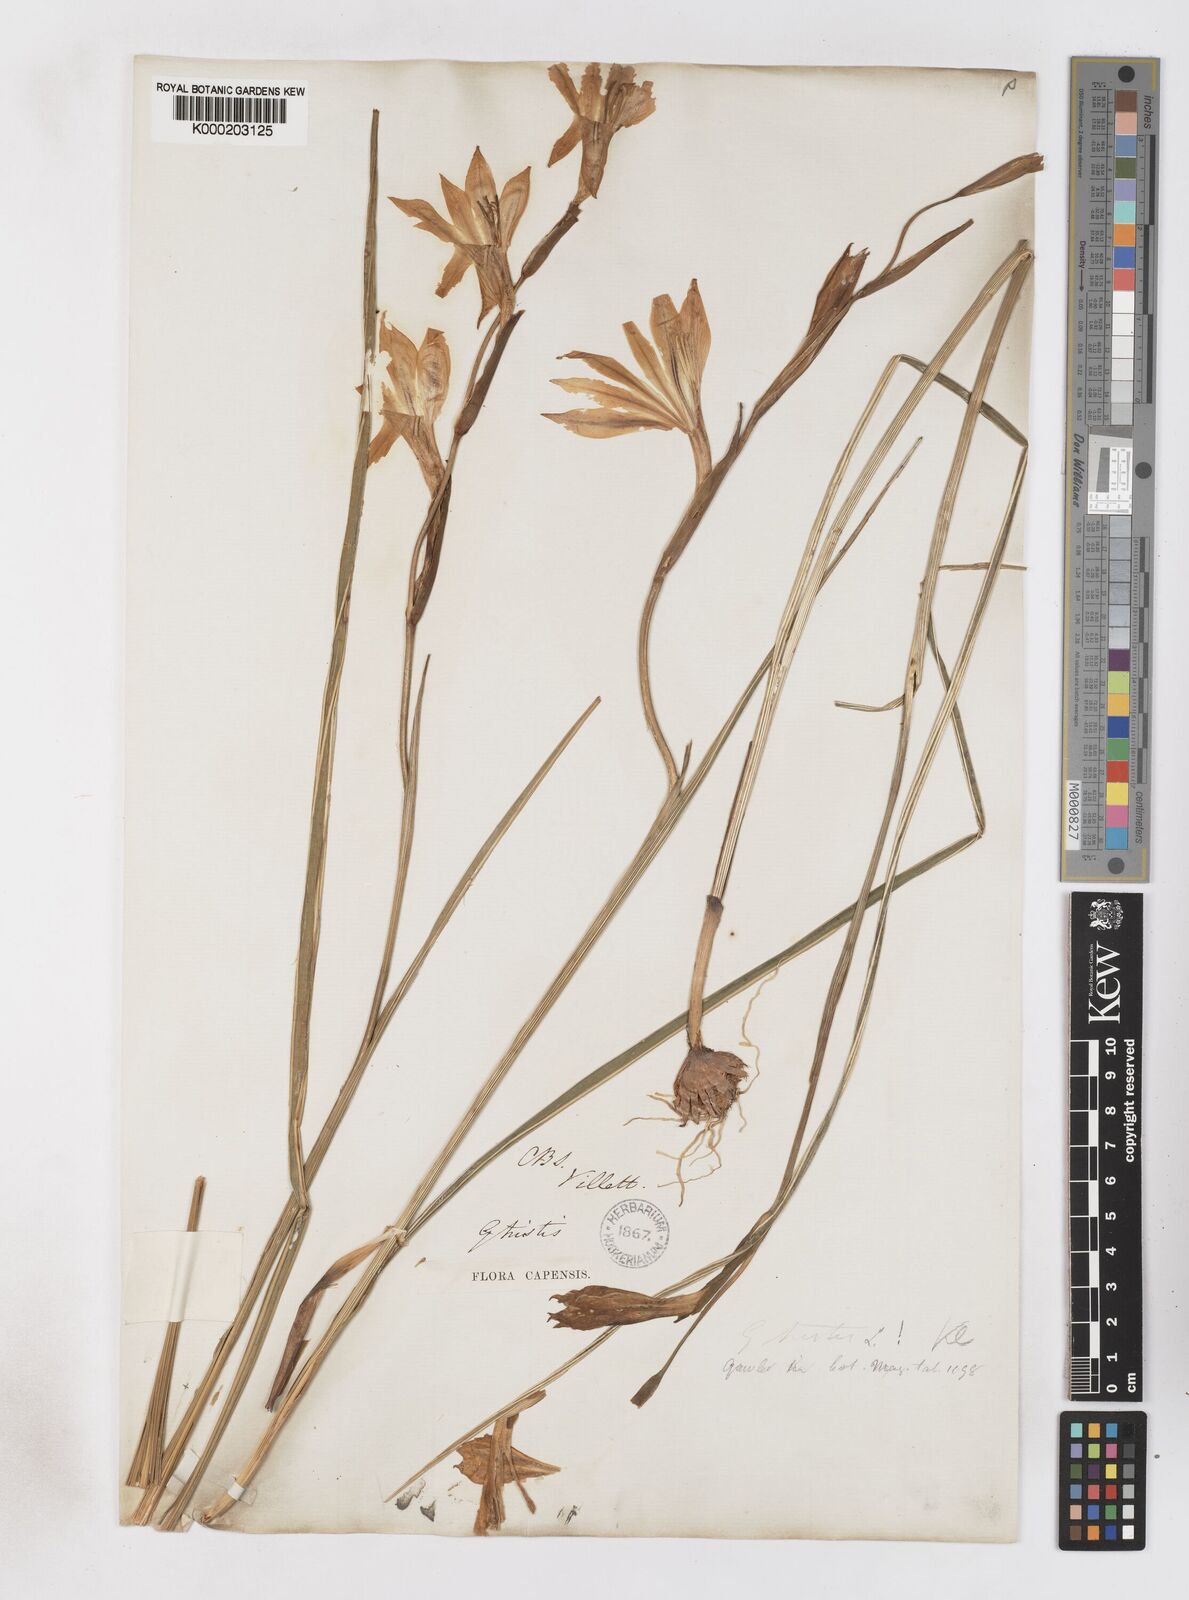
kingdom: Plantae
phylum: Tracheophyta
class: Liliopsida
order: Asparagales
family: Iridaceae
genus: Gladiolus
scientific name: Gladiolus tristis
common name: Ever-flowering gladiolus
